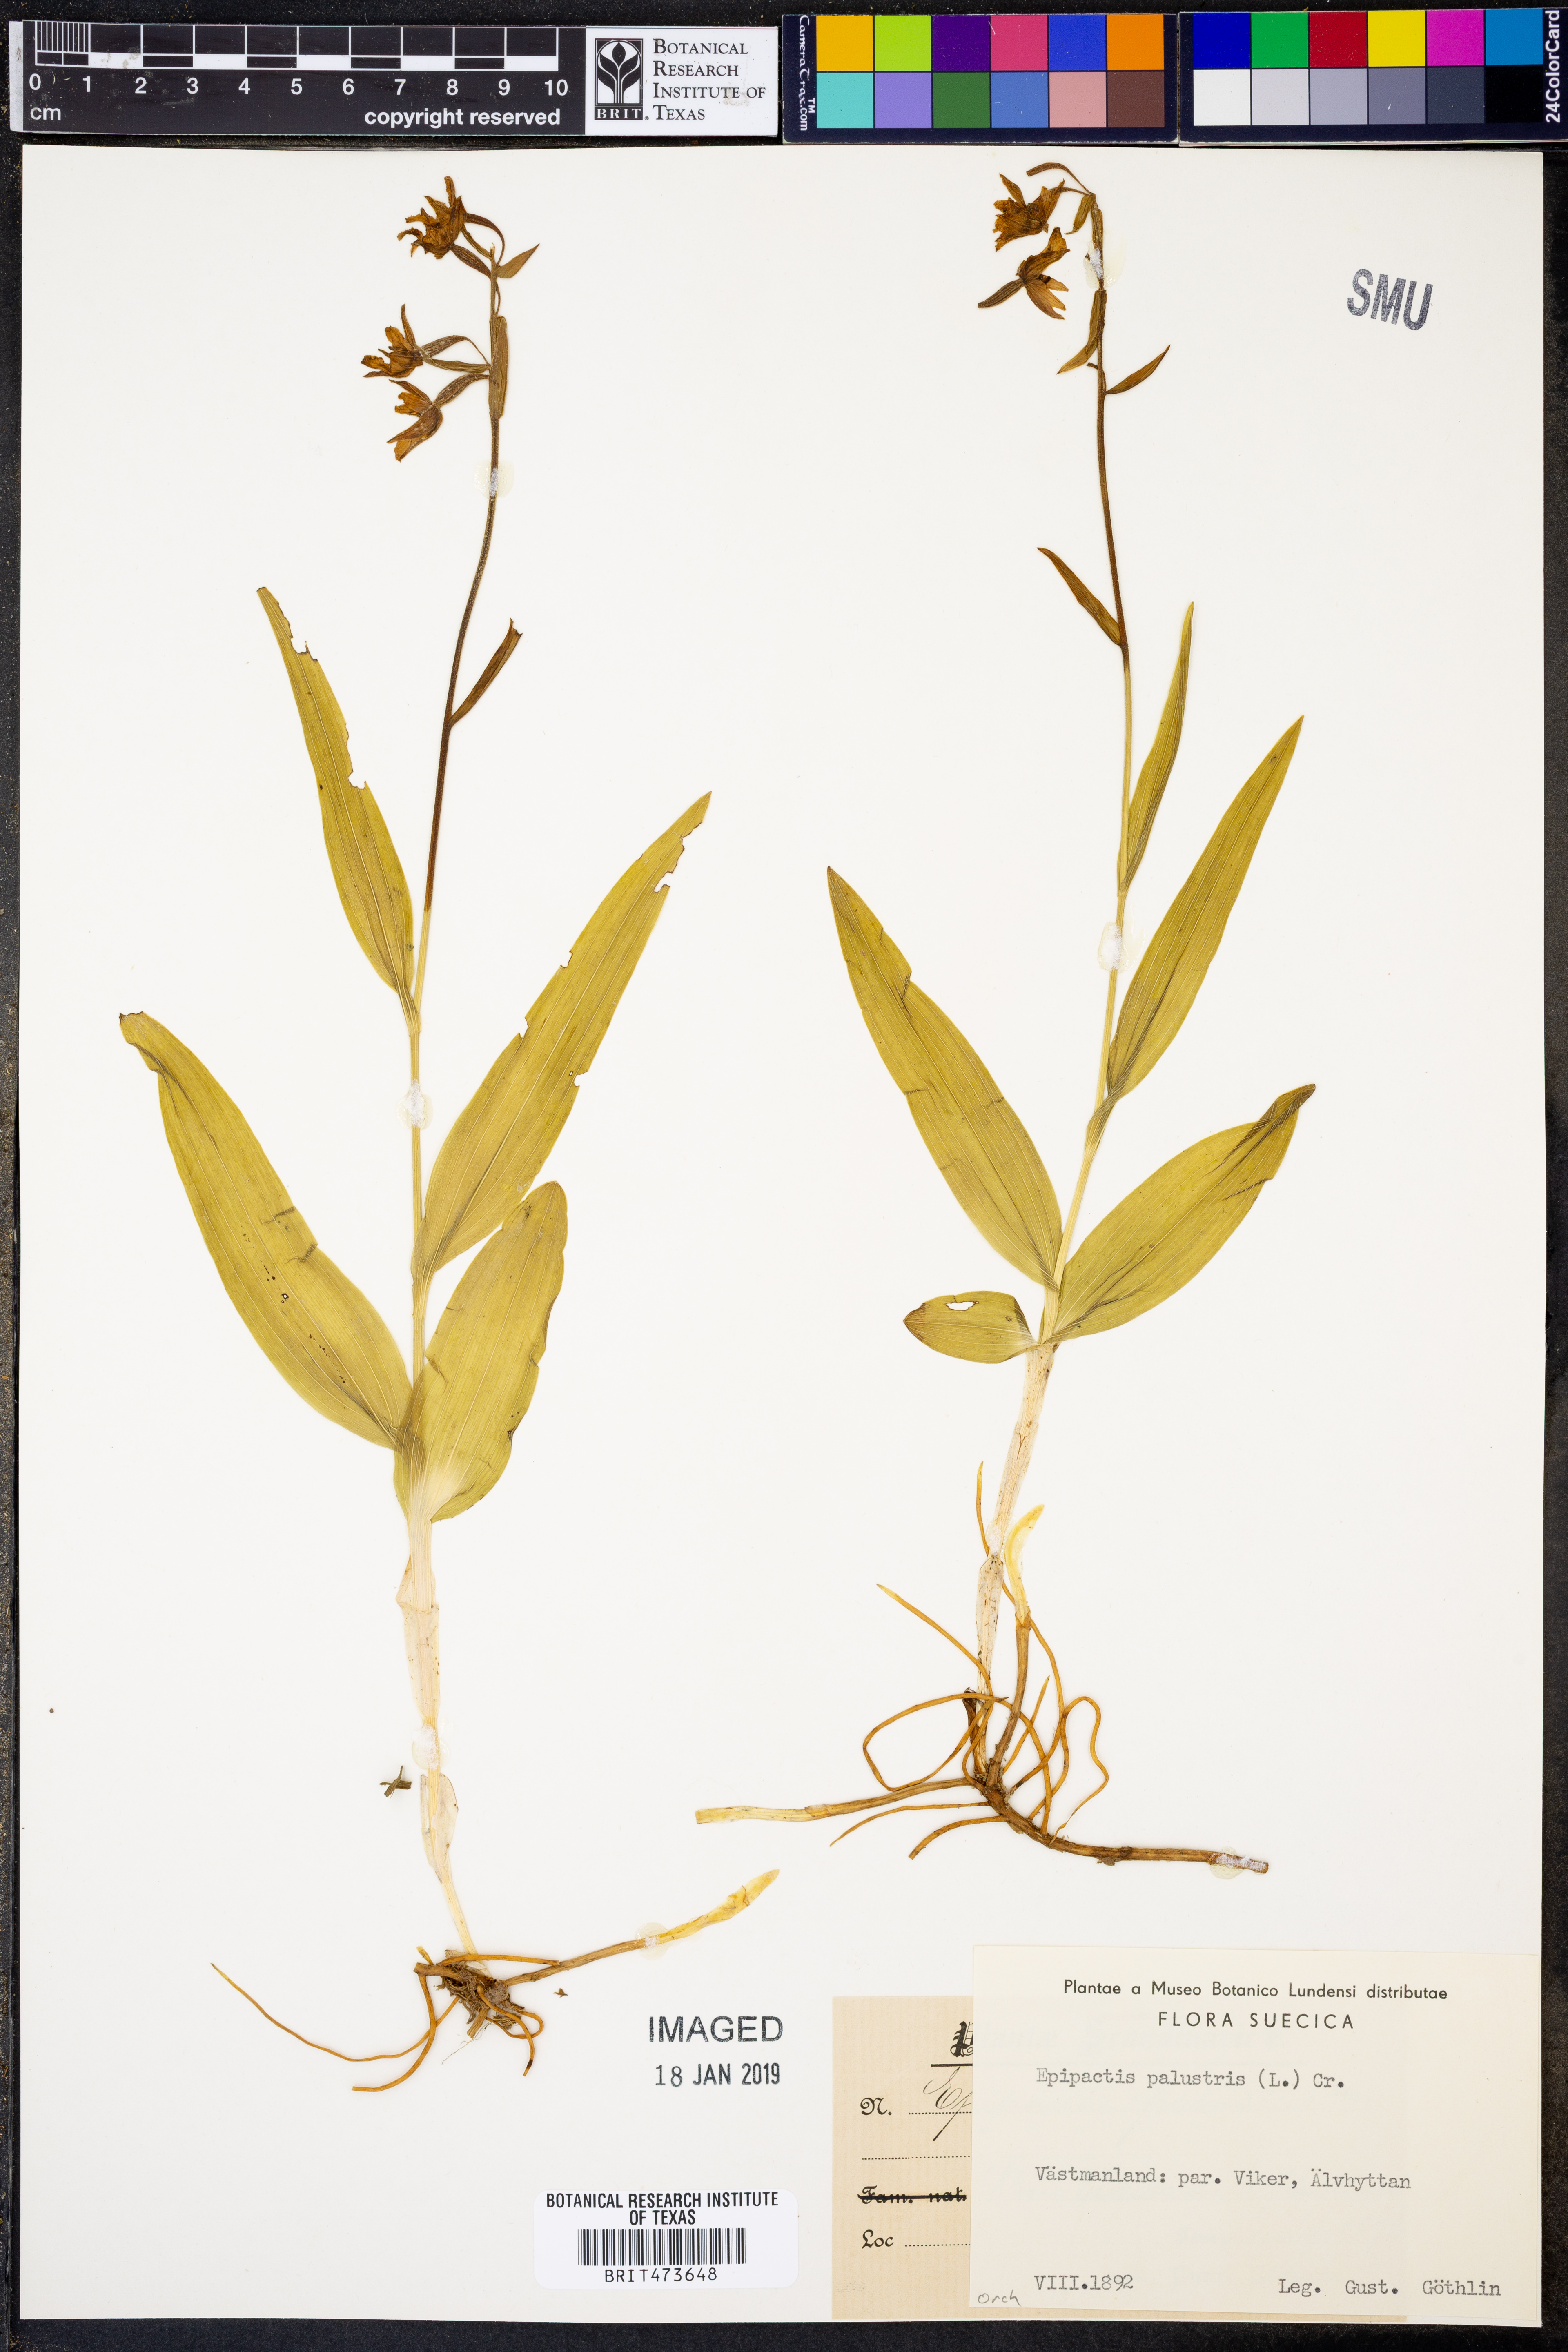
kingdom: Plantae
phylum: Tracheophyta
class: Liliopsida
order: Asparagales
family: Orchidaceae
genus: Epipactis
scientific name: Epipactis palustris
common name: Marsh helleborine
